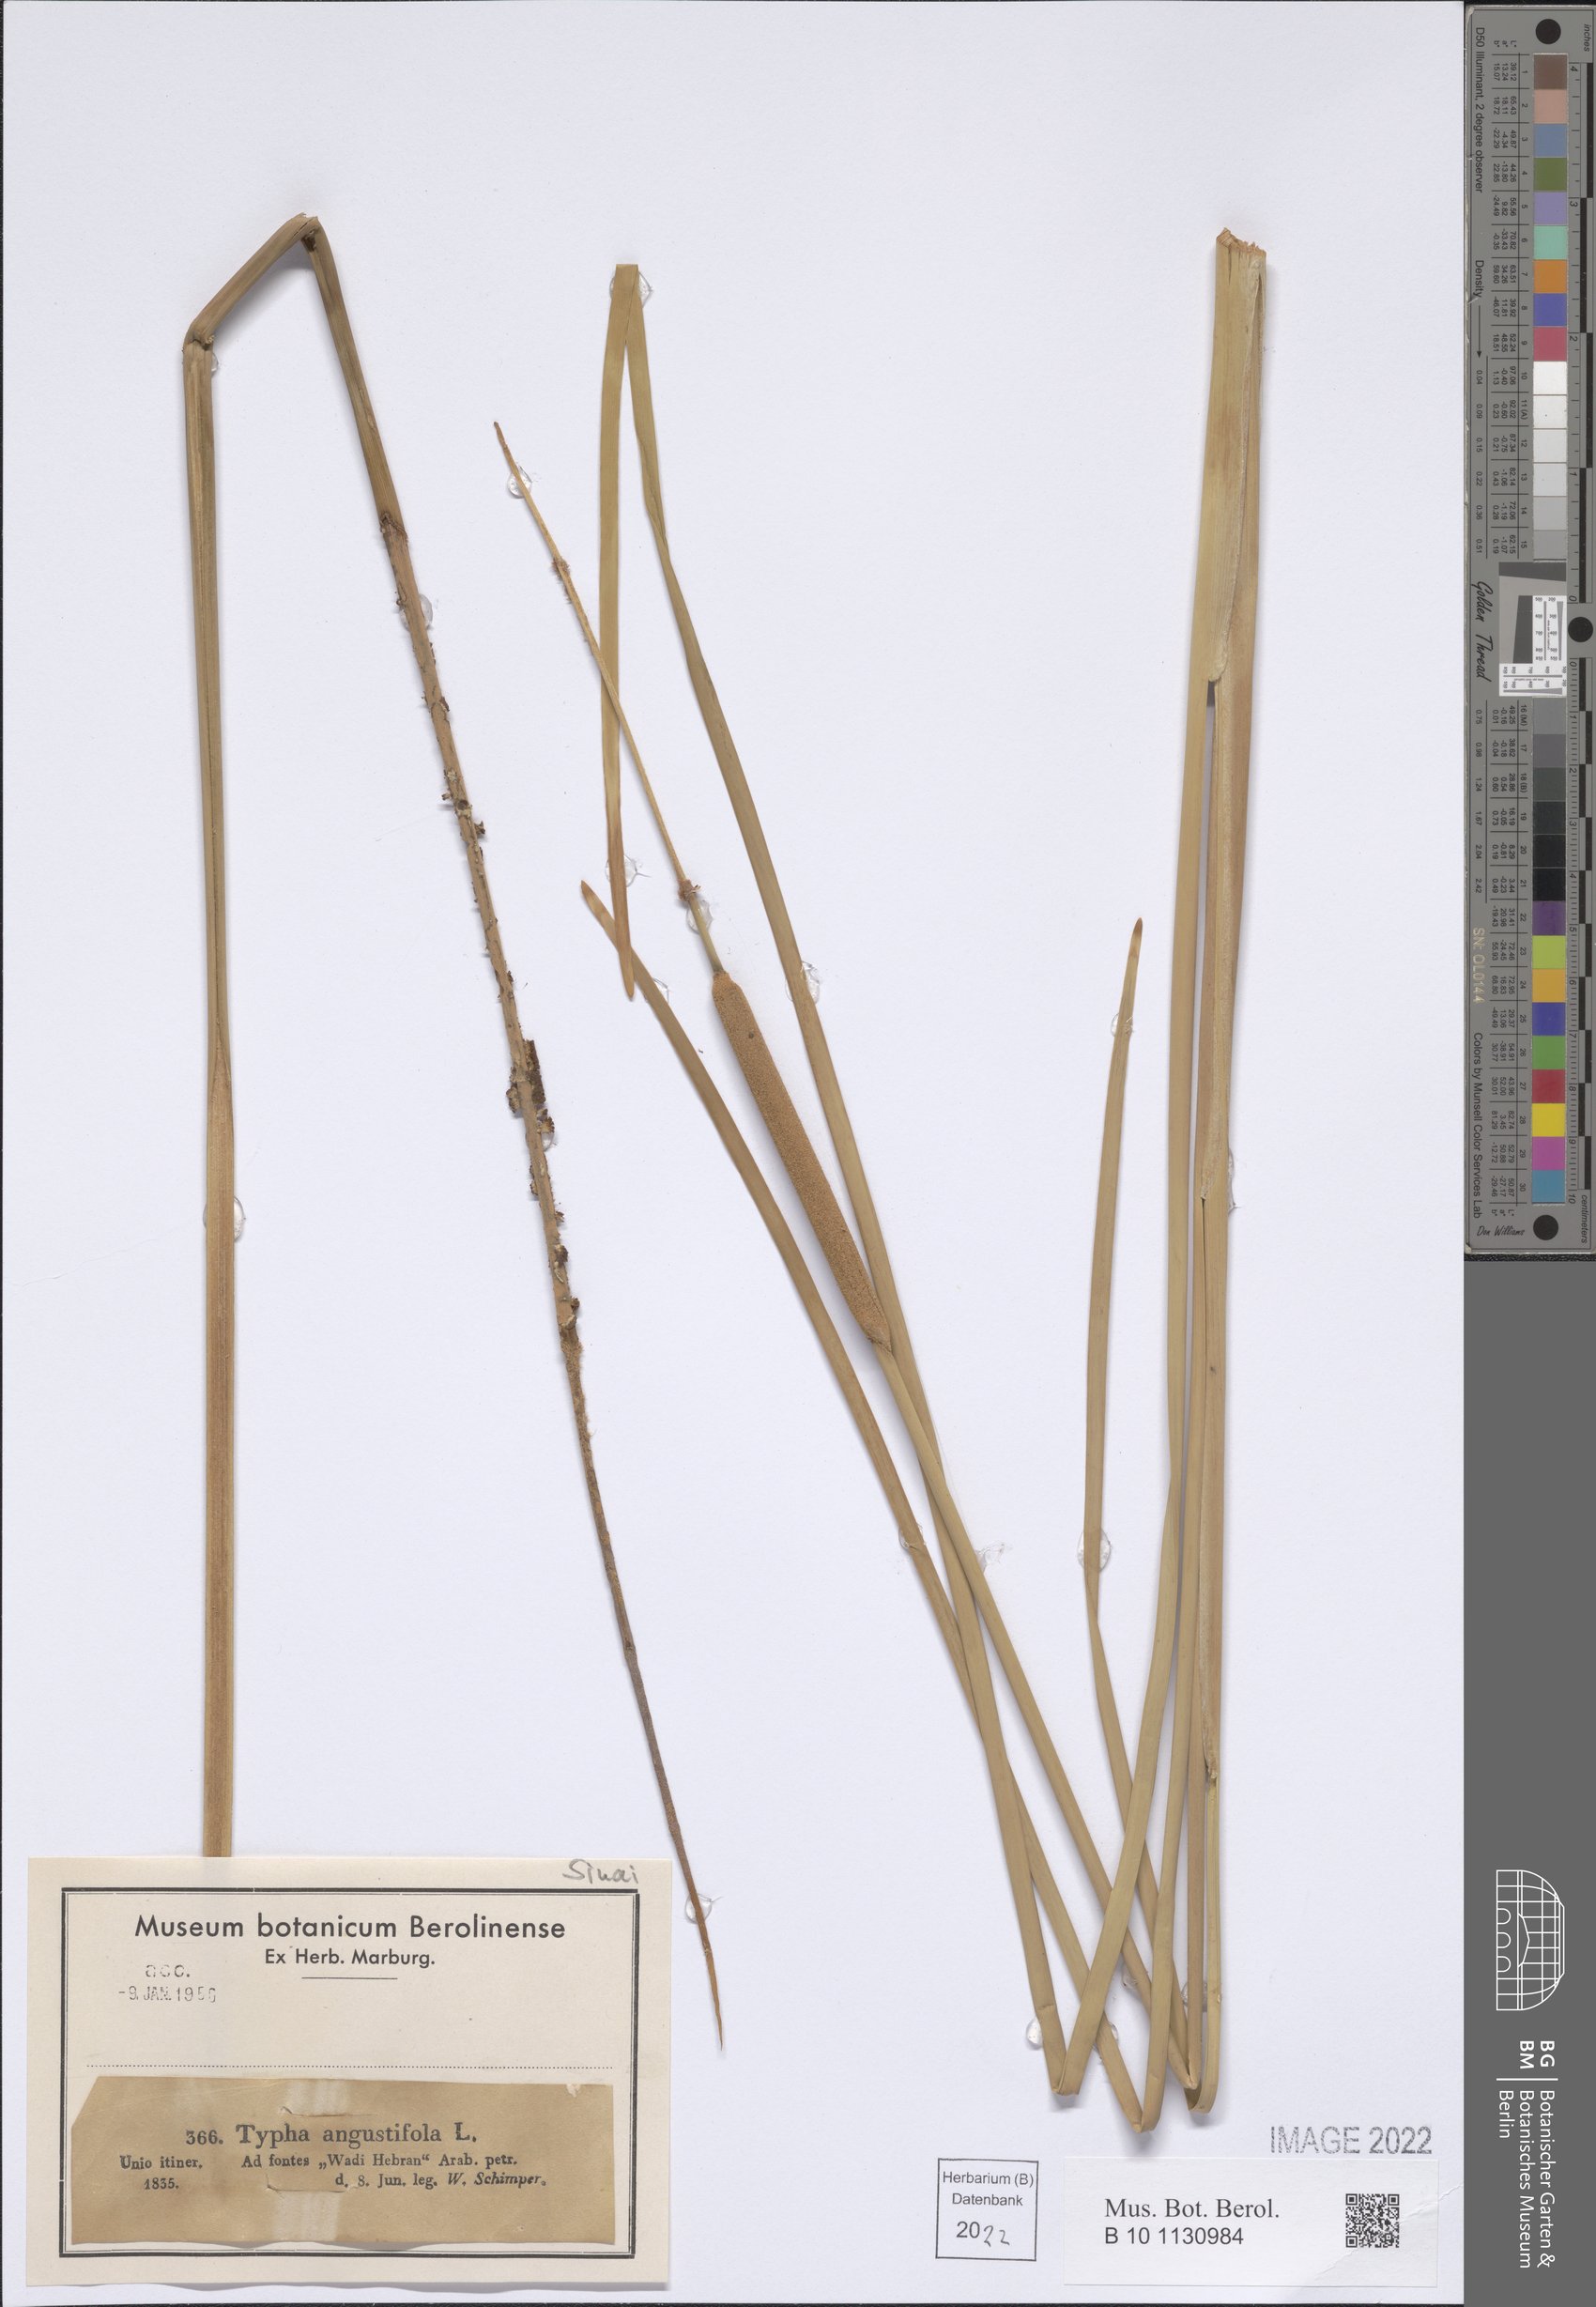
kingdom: Plantae
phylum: Tracheophyta
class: Liliopsida
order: Poales
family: Typhaceae
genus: Typha
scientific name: Typha angustifolia
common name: Lesser bulrush
